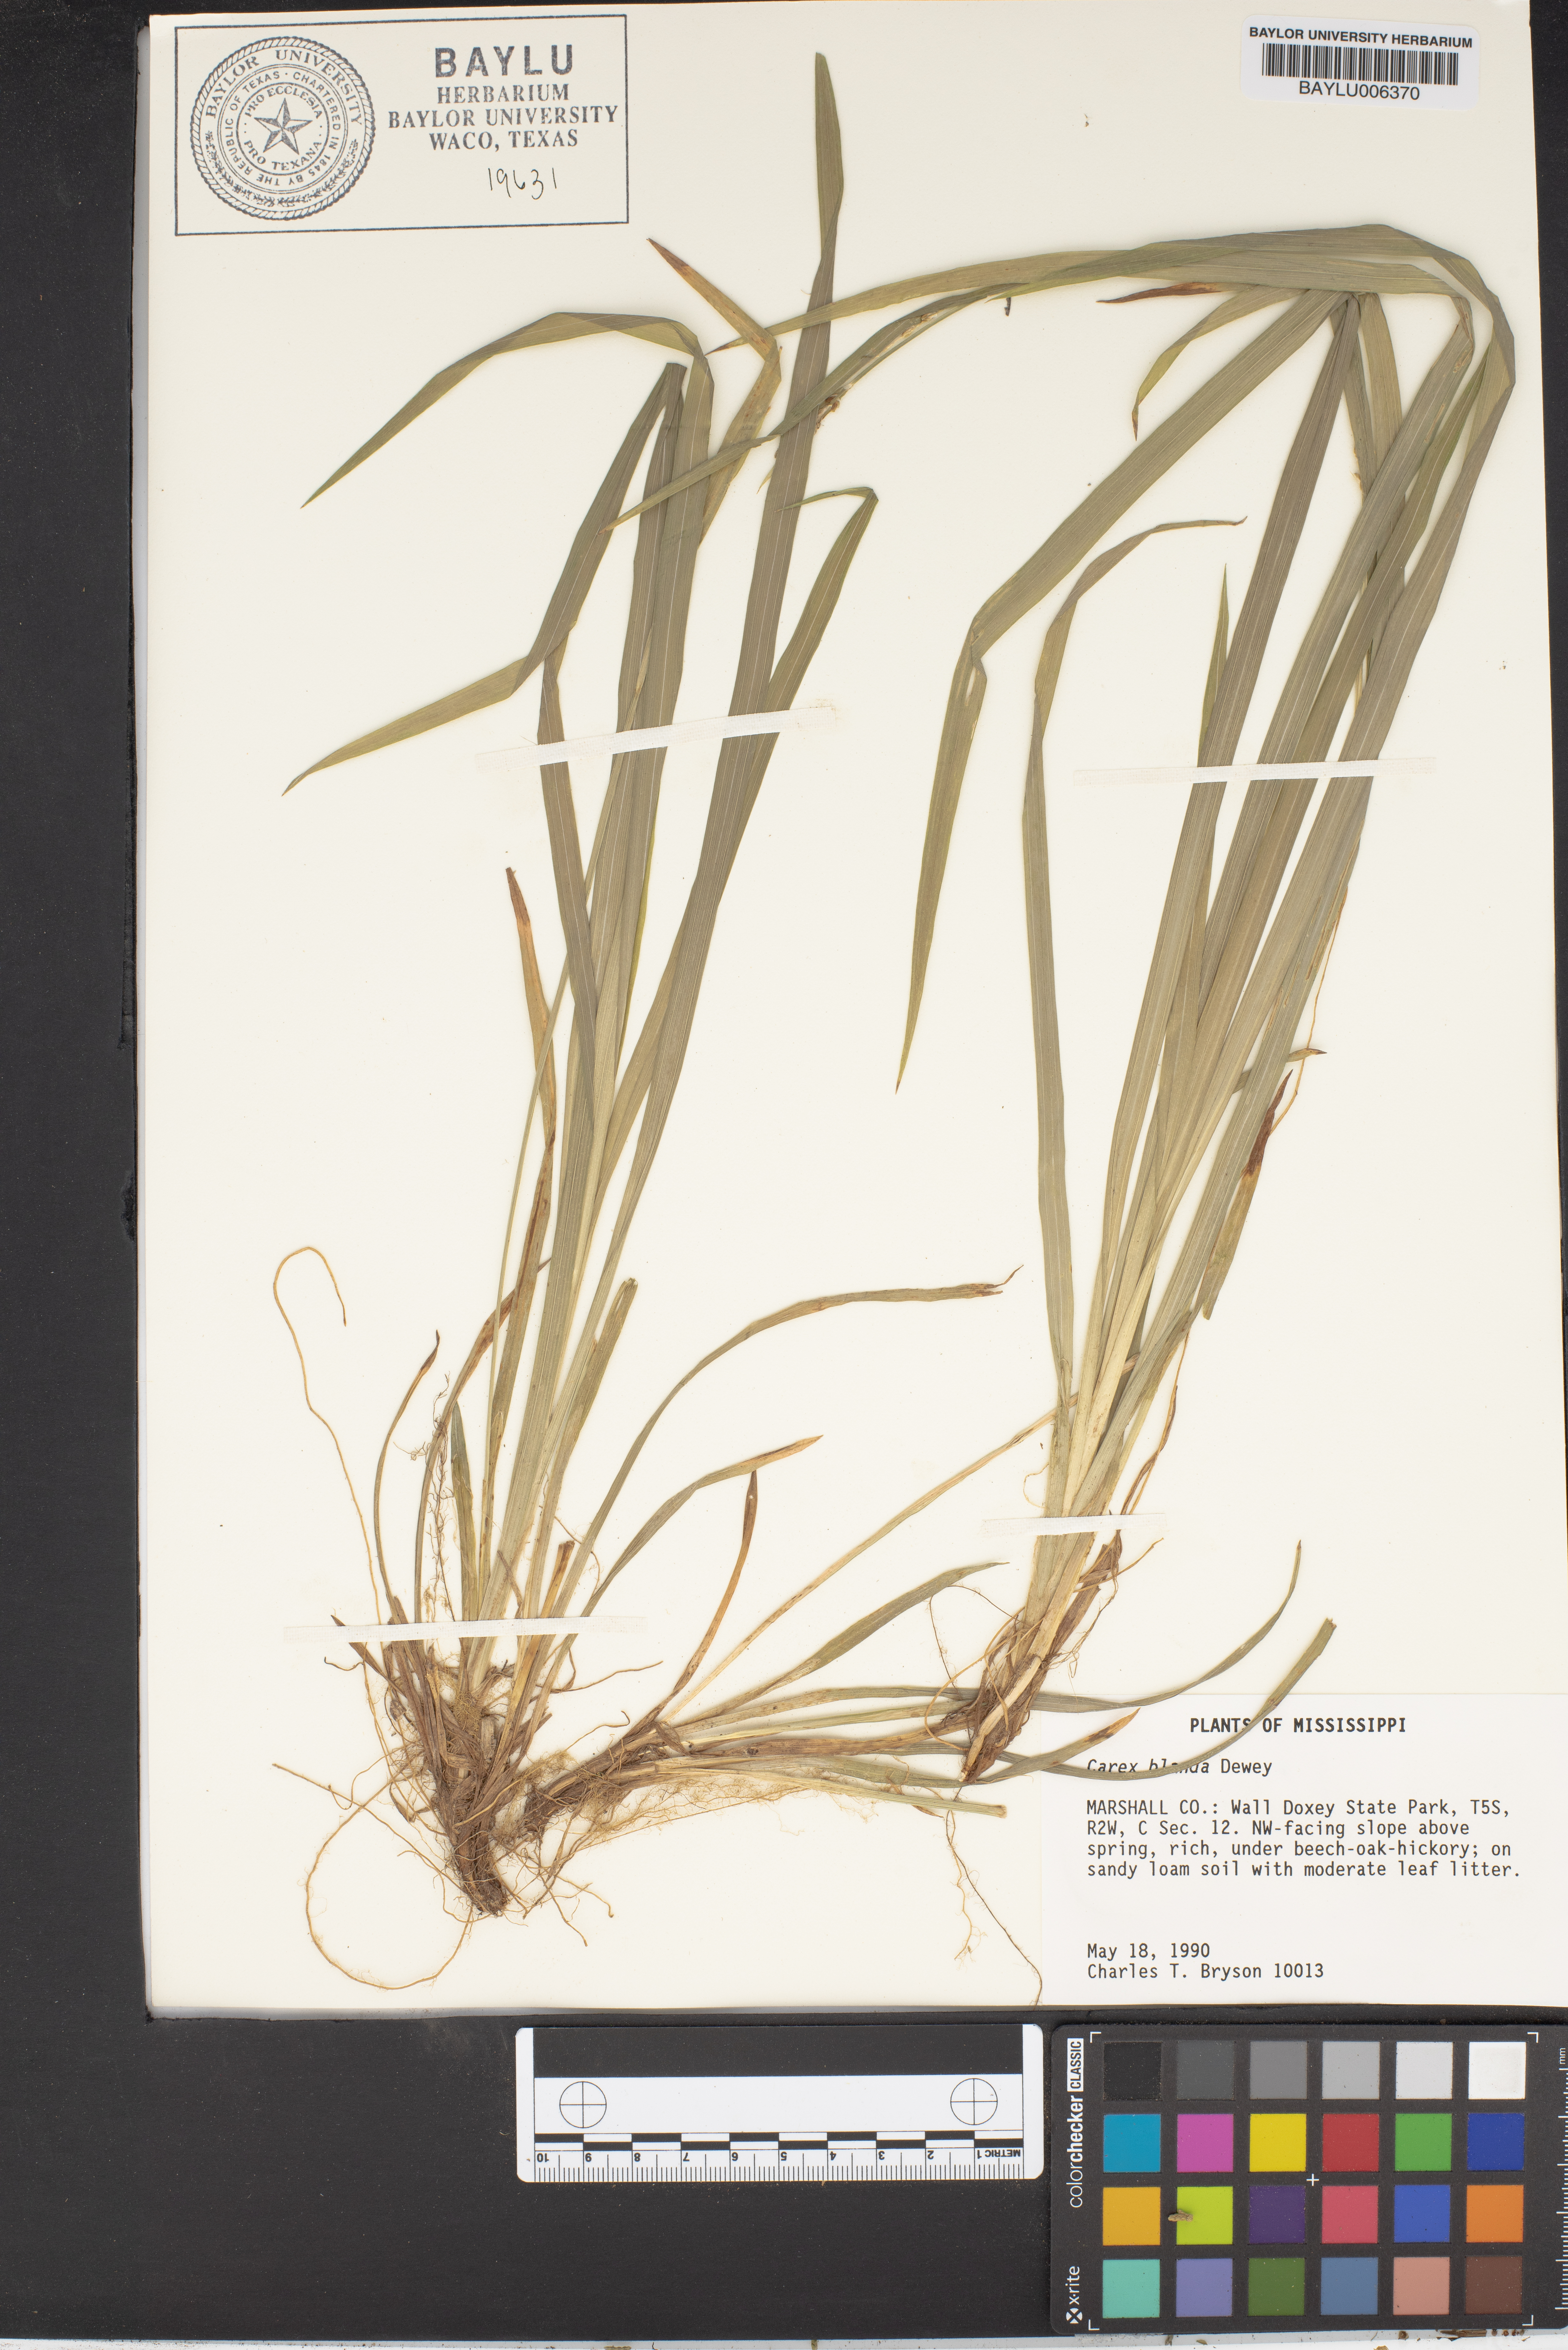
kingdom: Plantae
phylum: Tracheophyta
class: Liliopsida
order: Poales
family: Cyperaceae
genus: Carex
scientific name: Carex blanda
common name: Bland sedge
